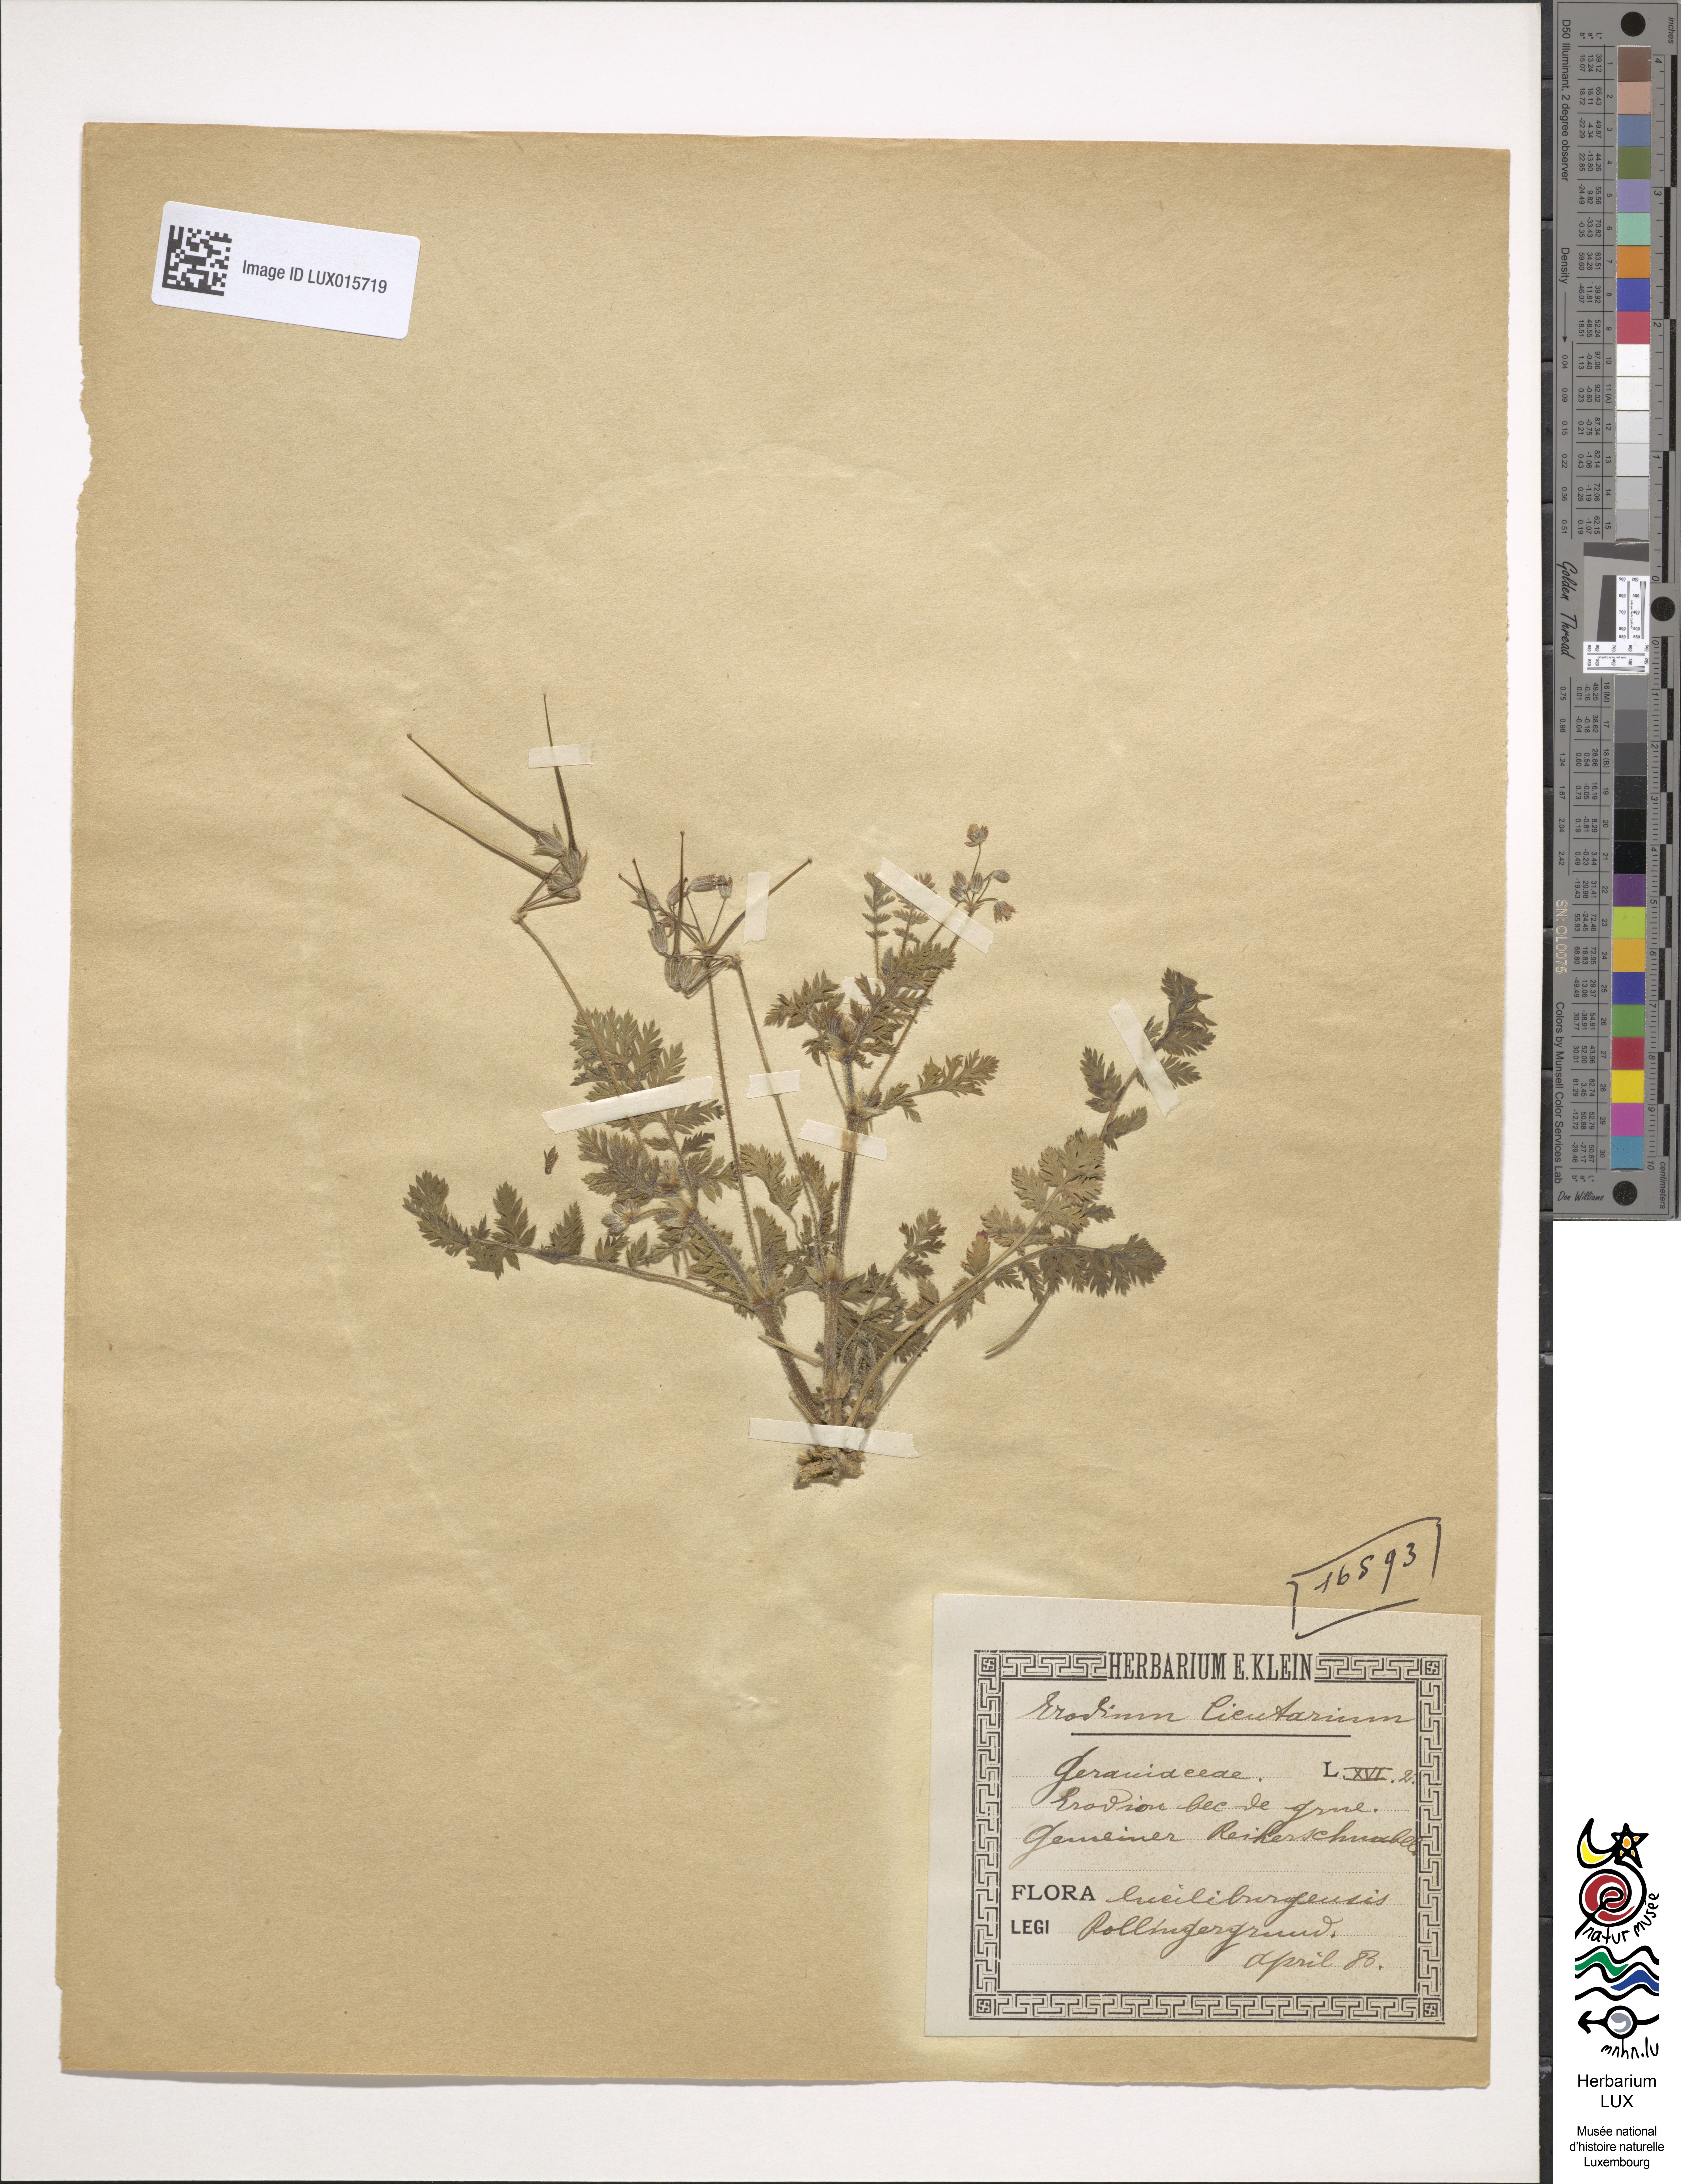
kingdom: Plantae
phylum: Tracheophyta
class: Magnoliopsida
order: Geraniales
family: Geraniaceae
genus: Erodium
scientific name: Erodium cicutarium
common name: Common stork's-bill
